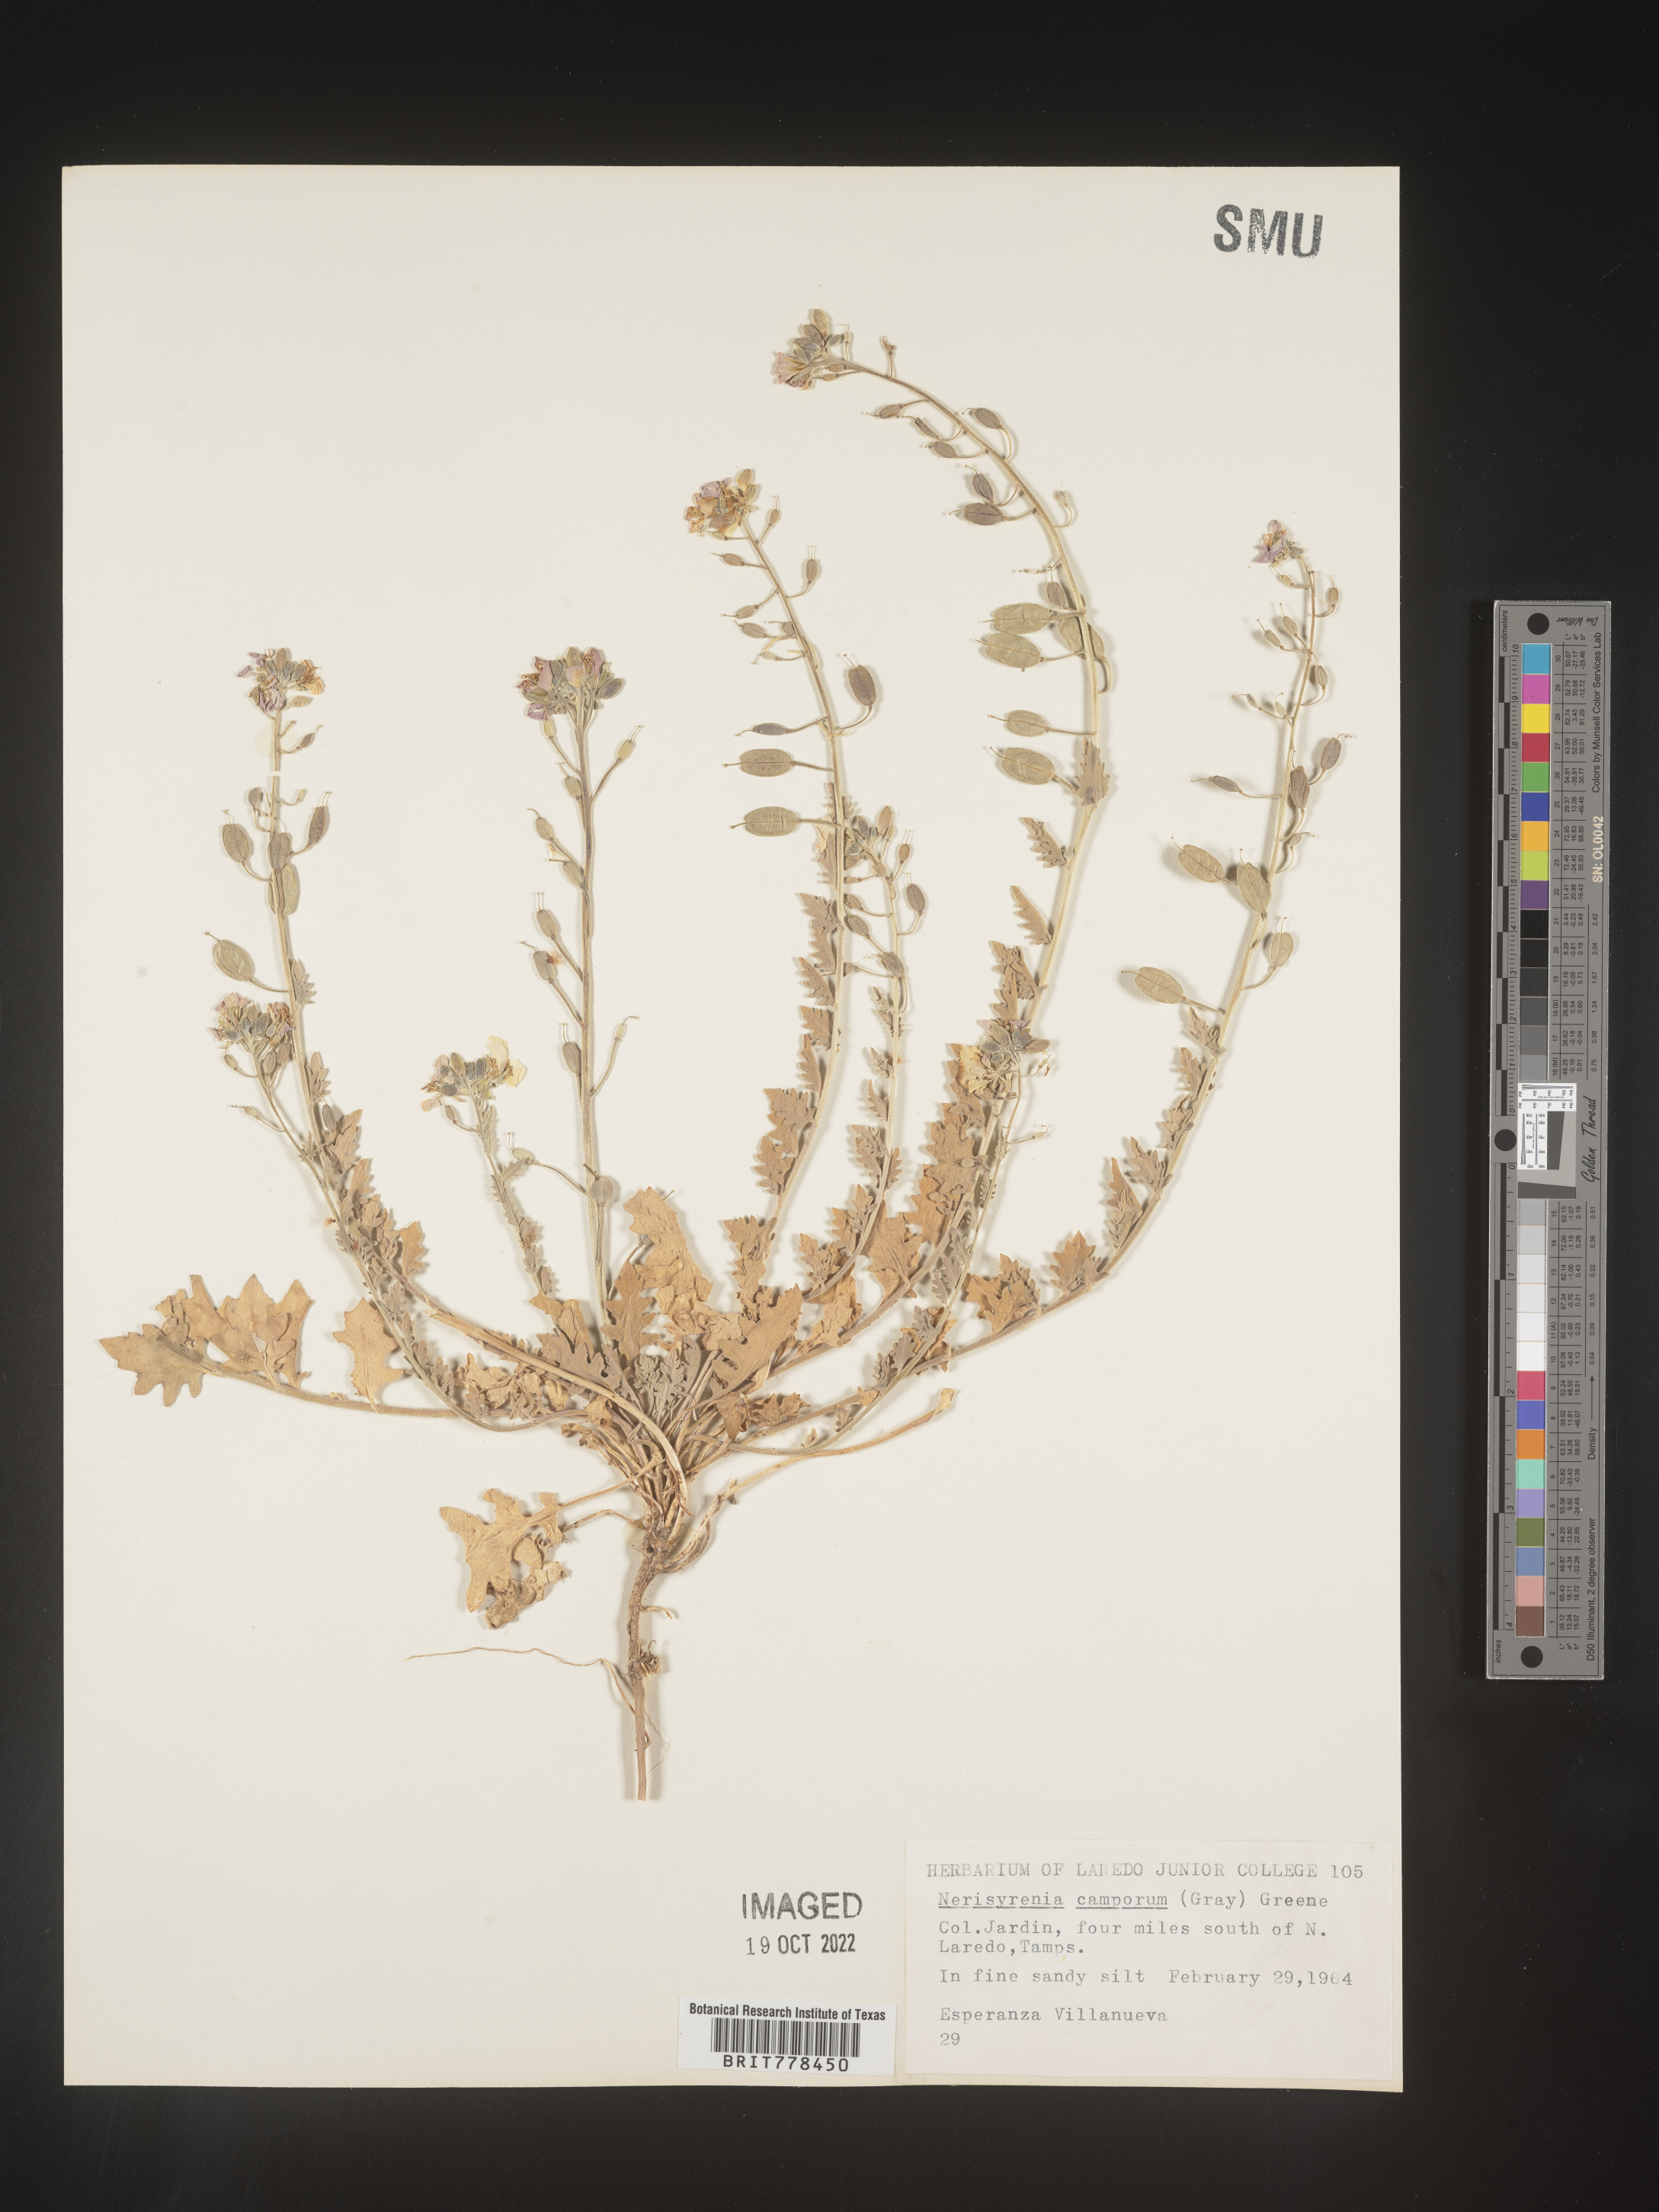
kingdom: Plantae
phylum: Tracheophyta
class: Magnoliopsida
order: Brassicales
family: Brassicaceae
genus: Nerisyrenia
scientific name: Nerisyrenia
